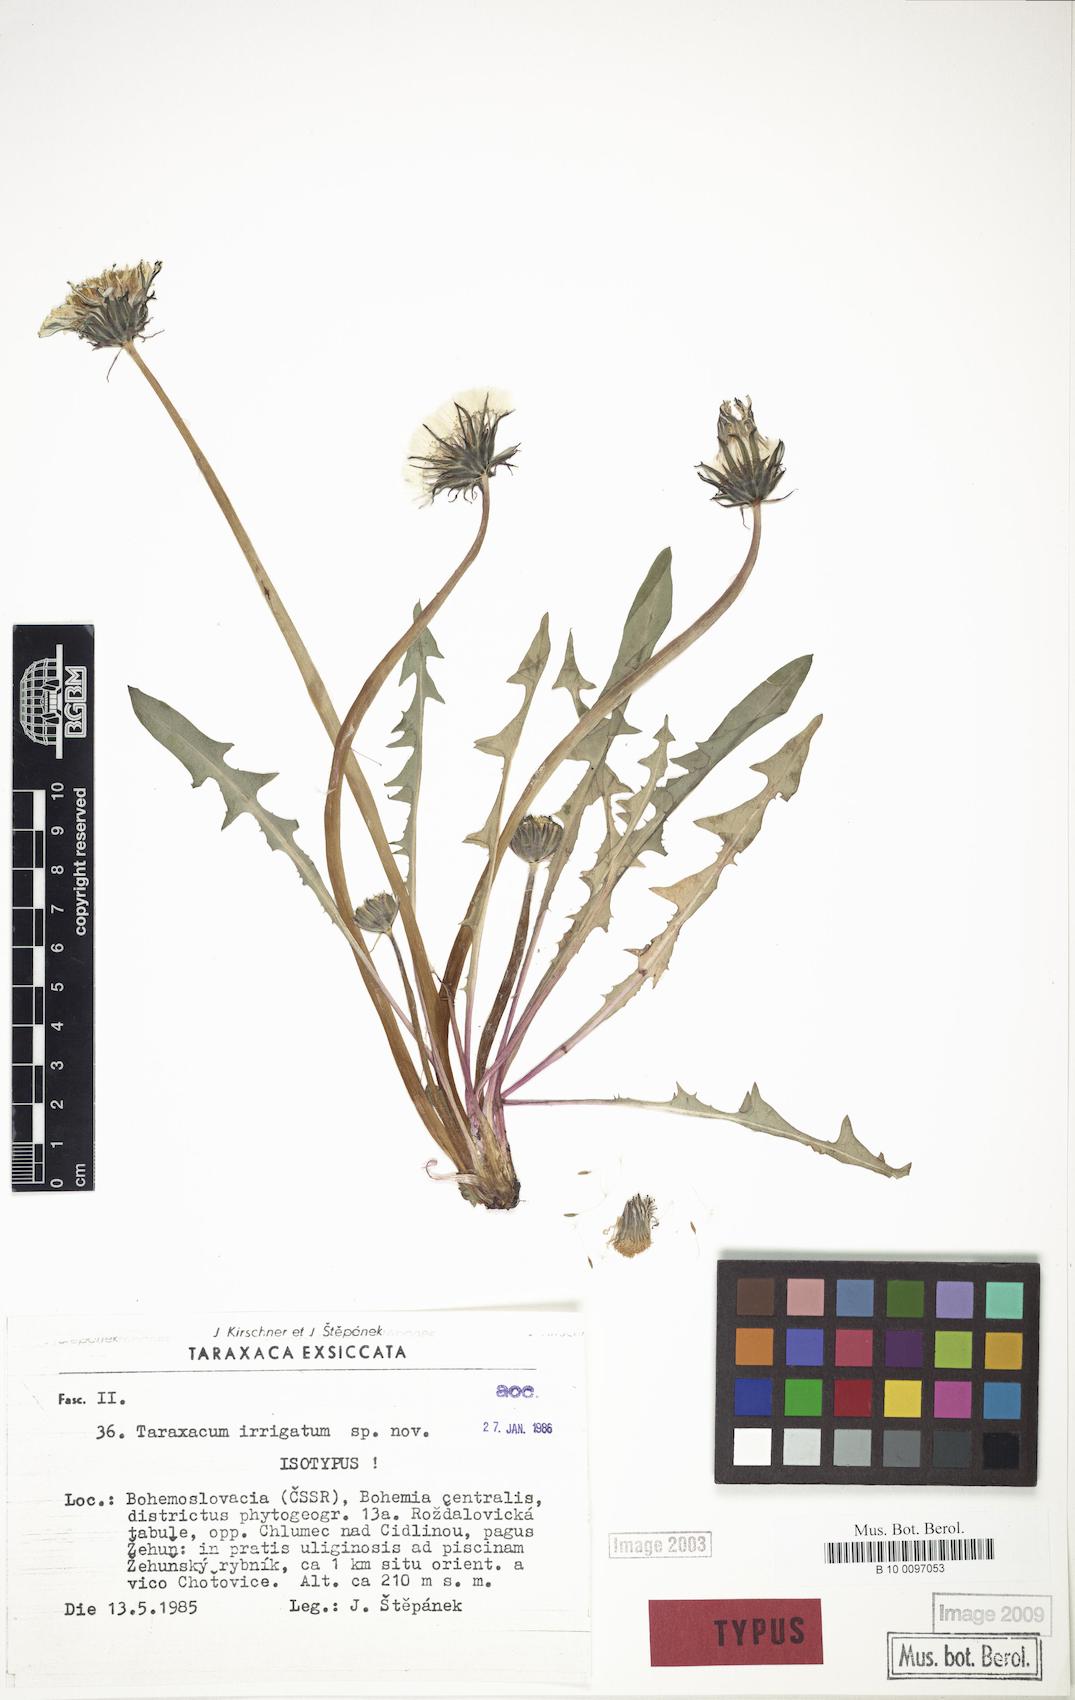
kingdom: Plantae
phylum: Tracheophyta
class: Magnoliopsida
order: Asterales
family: Asteraceae
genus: Taraxacum
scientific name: Taraxacum pseudopalustre
